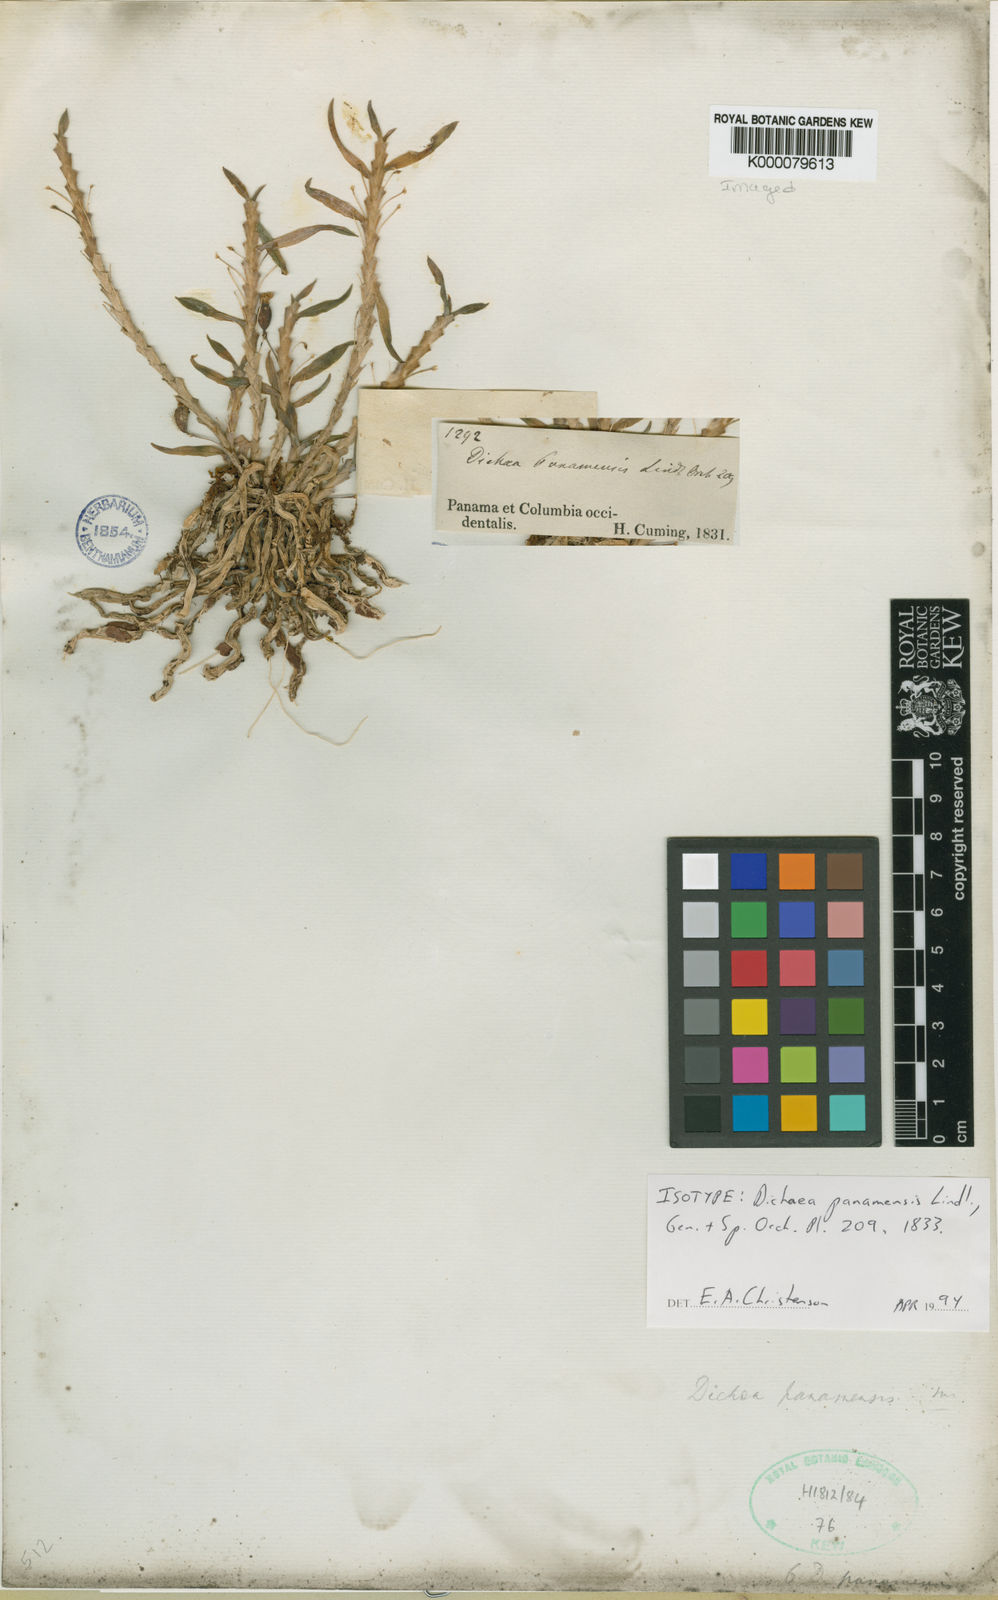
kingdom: Plantae
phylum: Tracheophyta
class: Liliopsida
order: Asparagales
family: Orchidaceae
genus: Dichaea
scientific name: Dichaea panamensis
